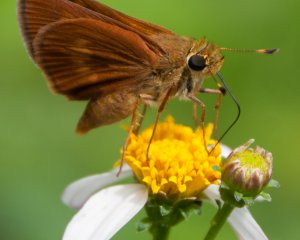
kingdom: Animalia
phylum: Arthropoda
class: Insecta
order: Lepidoptera
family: Hesperiidae
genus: Wallengrenia
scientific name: Wallengrenia otho
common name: Southern Broken-Dash
